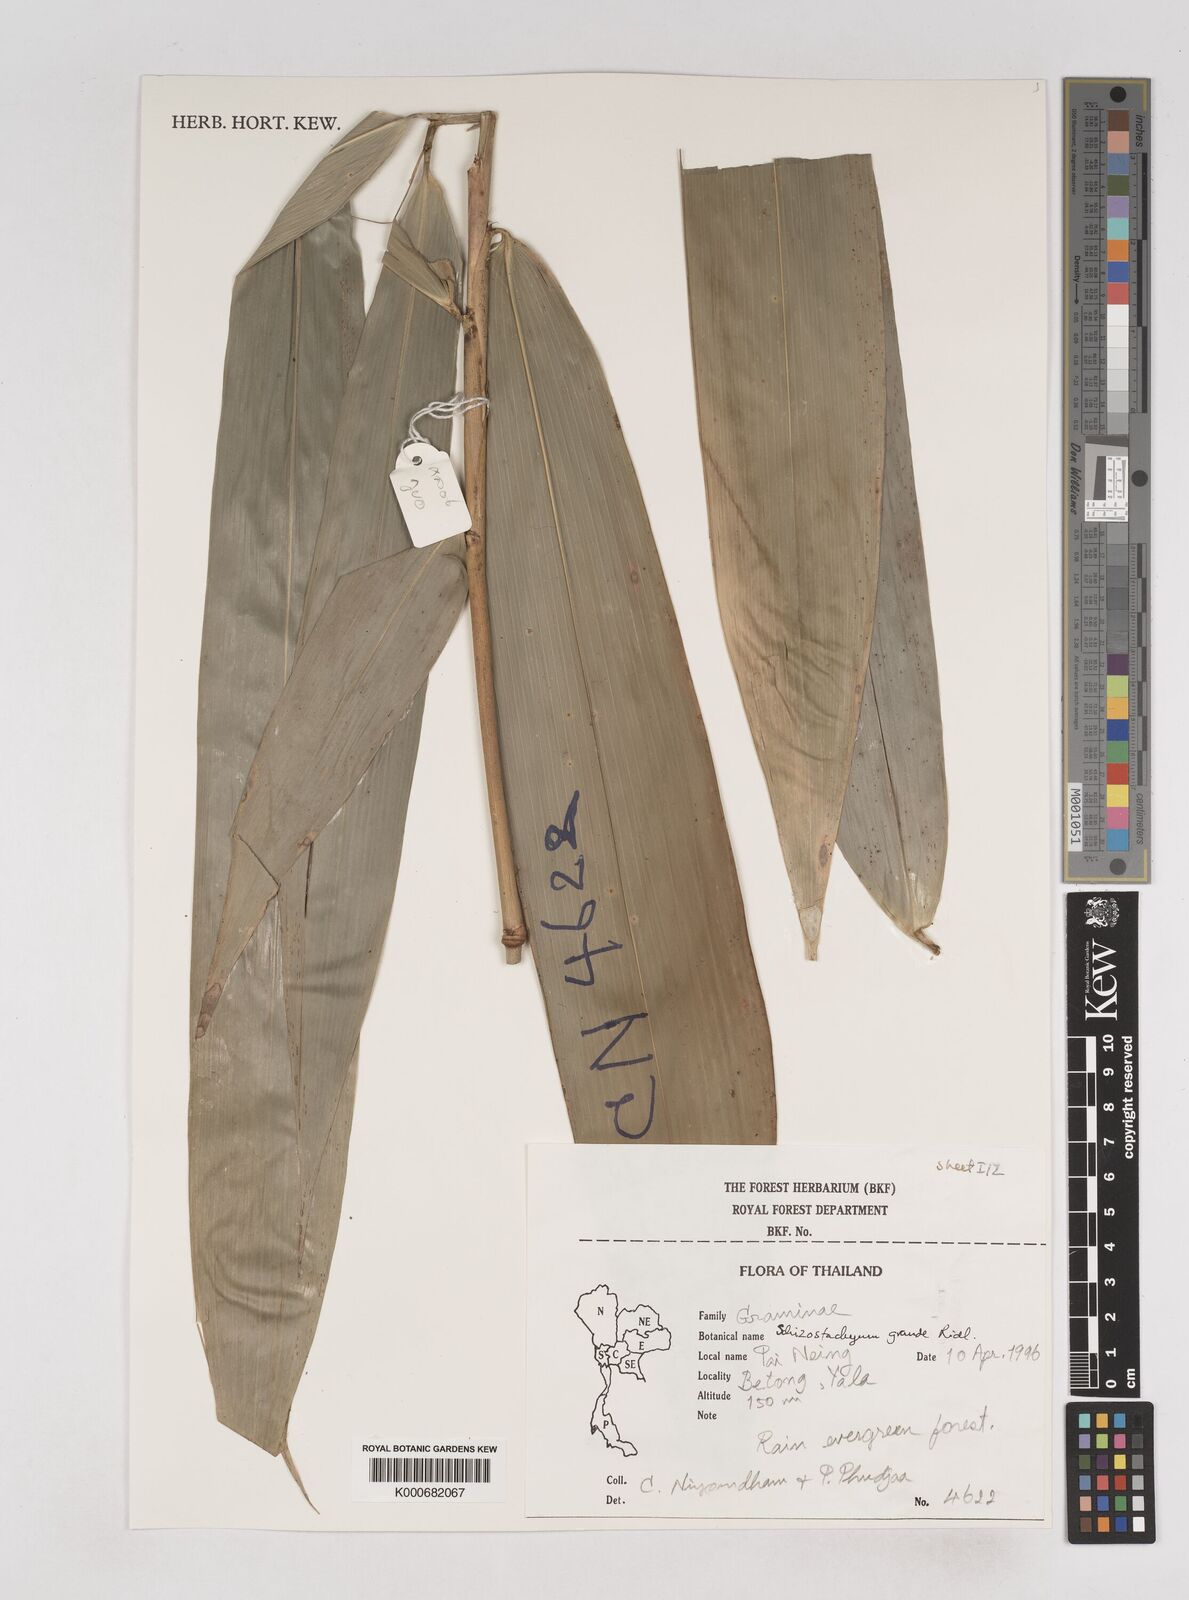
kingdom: Plantae
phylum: Tracheophyta
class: Liliopsida
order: Poales
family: Poaceae
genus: Schizostachyum
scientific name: Schizostachyum grande
